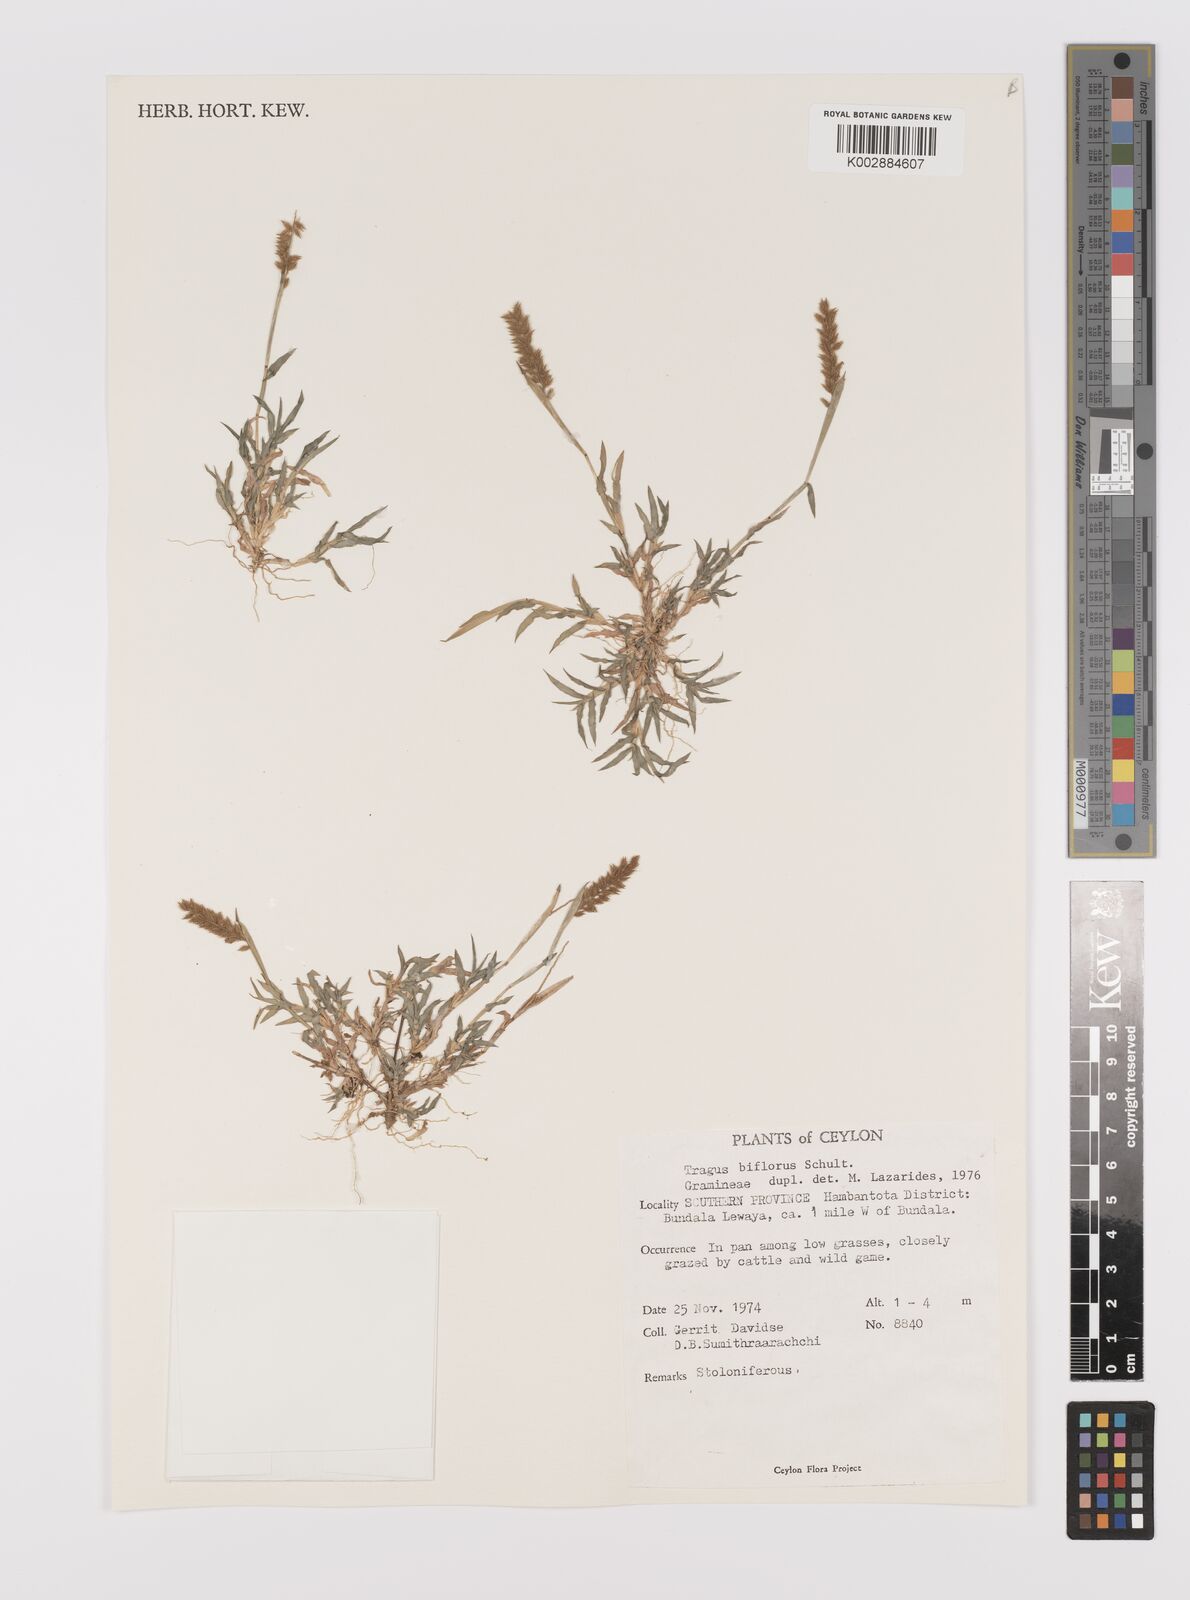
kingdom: Plantae
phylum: Tracheophyta
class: Liliopsida
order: Poales
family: Poaceae
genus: Tragus
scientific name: Tragus mongolorum
